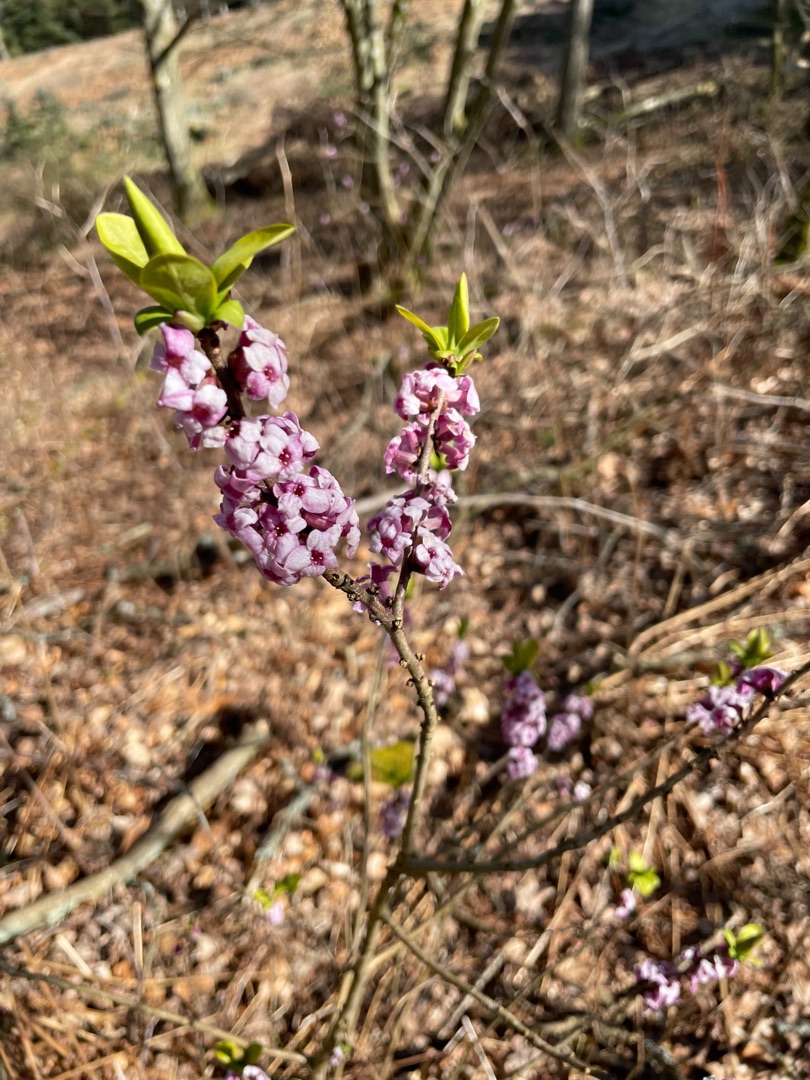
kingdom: Plantae
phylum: Tracheophyta
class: Magnoliopsida
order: Malvales
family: Thymelaeaceae
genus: Daphne
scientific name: Daphne mezereum
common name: Pebertræ
